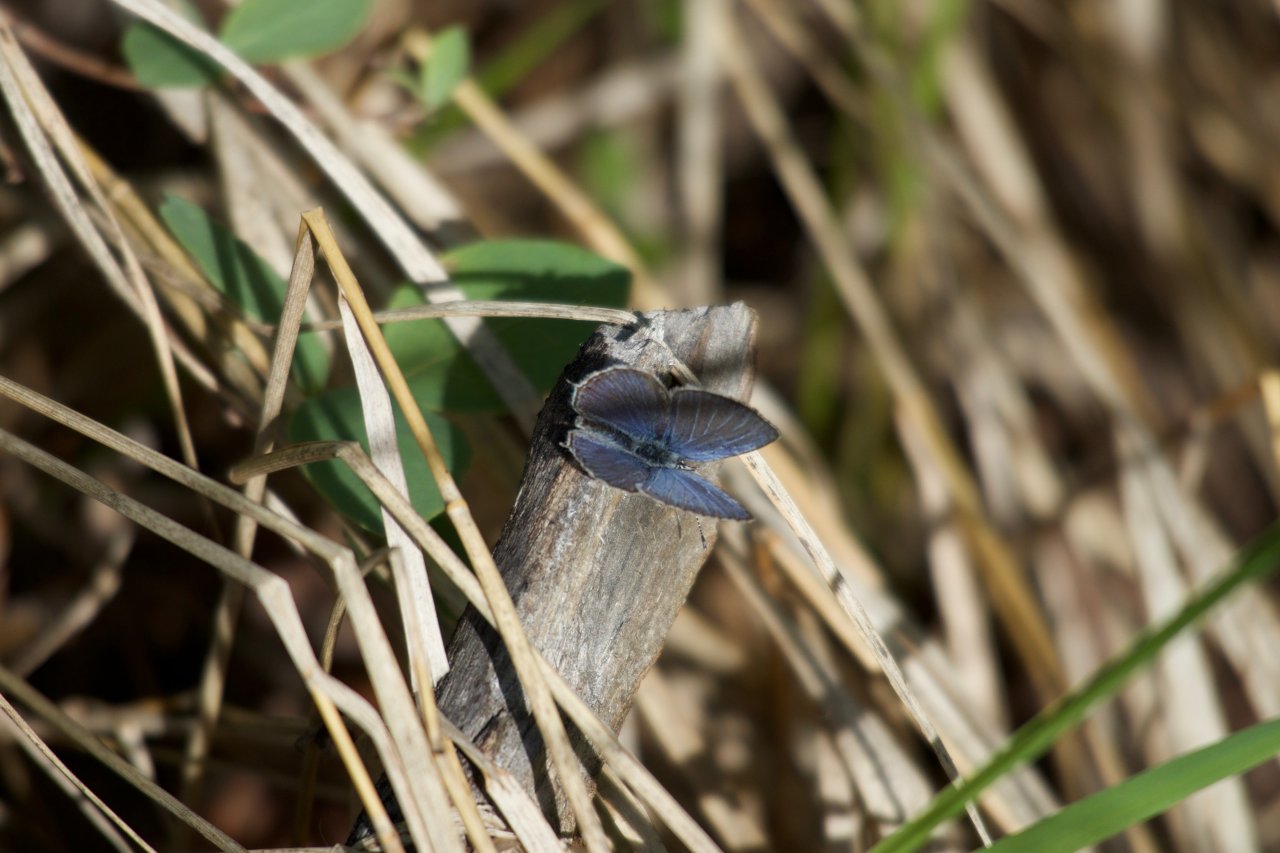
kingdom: Animalia
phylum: Arthropoda
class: Insecta
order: Lepidoptera
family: Lycaenidae
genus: Elkalyce
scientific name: Elkalyce amyntula
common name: Western Tailed-Blue
